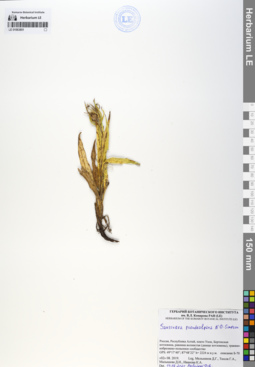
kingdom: Plantae
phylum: Tracheophyta
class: Magnoliopsida
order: Asterales
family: Asteraceae
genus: Saussurea
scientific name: Saussurea pseudoalpina
